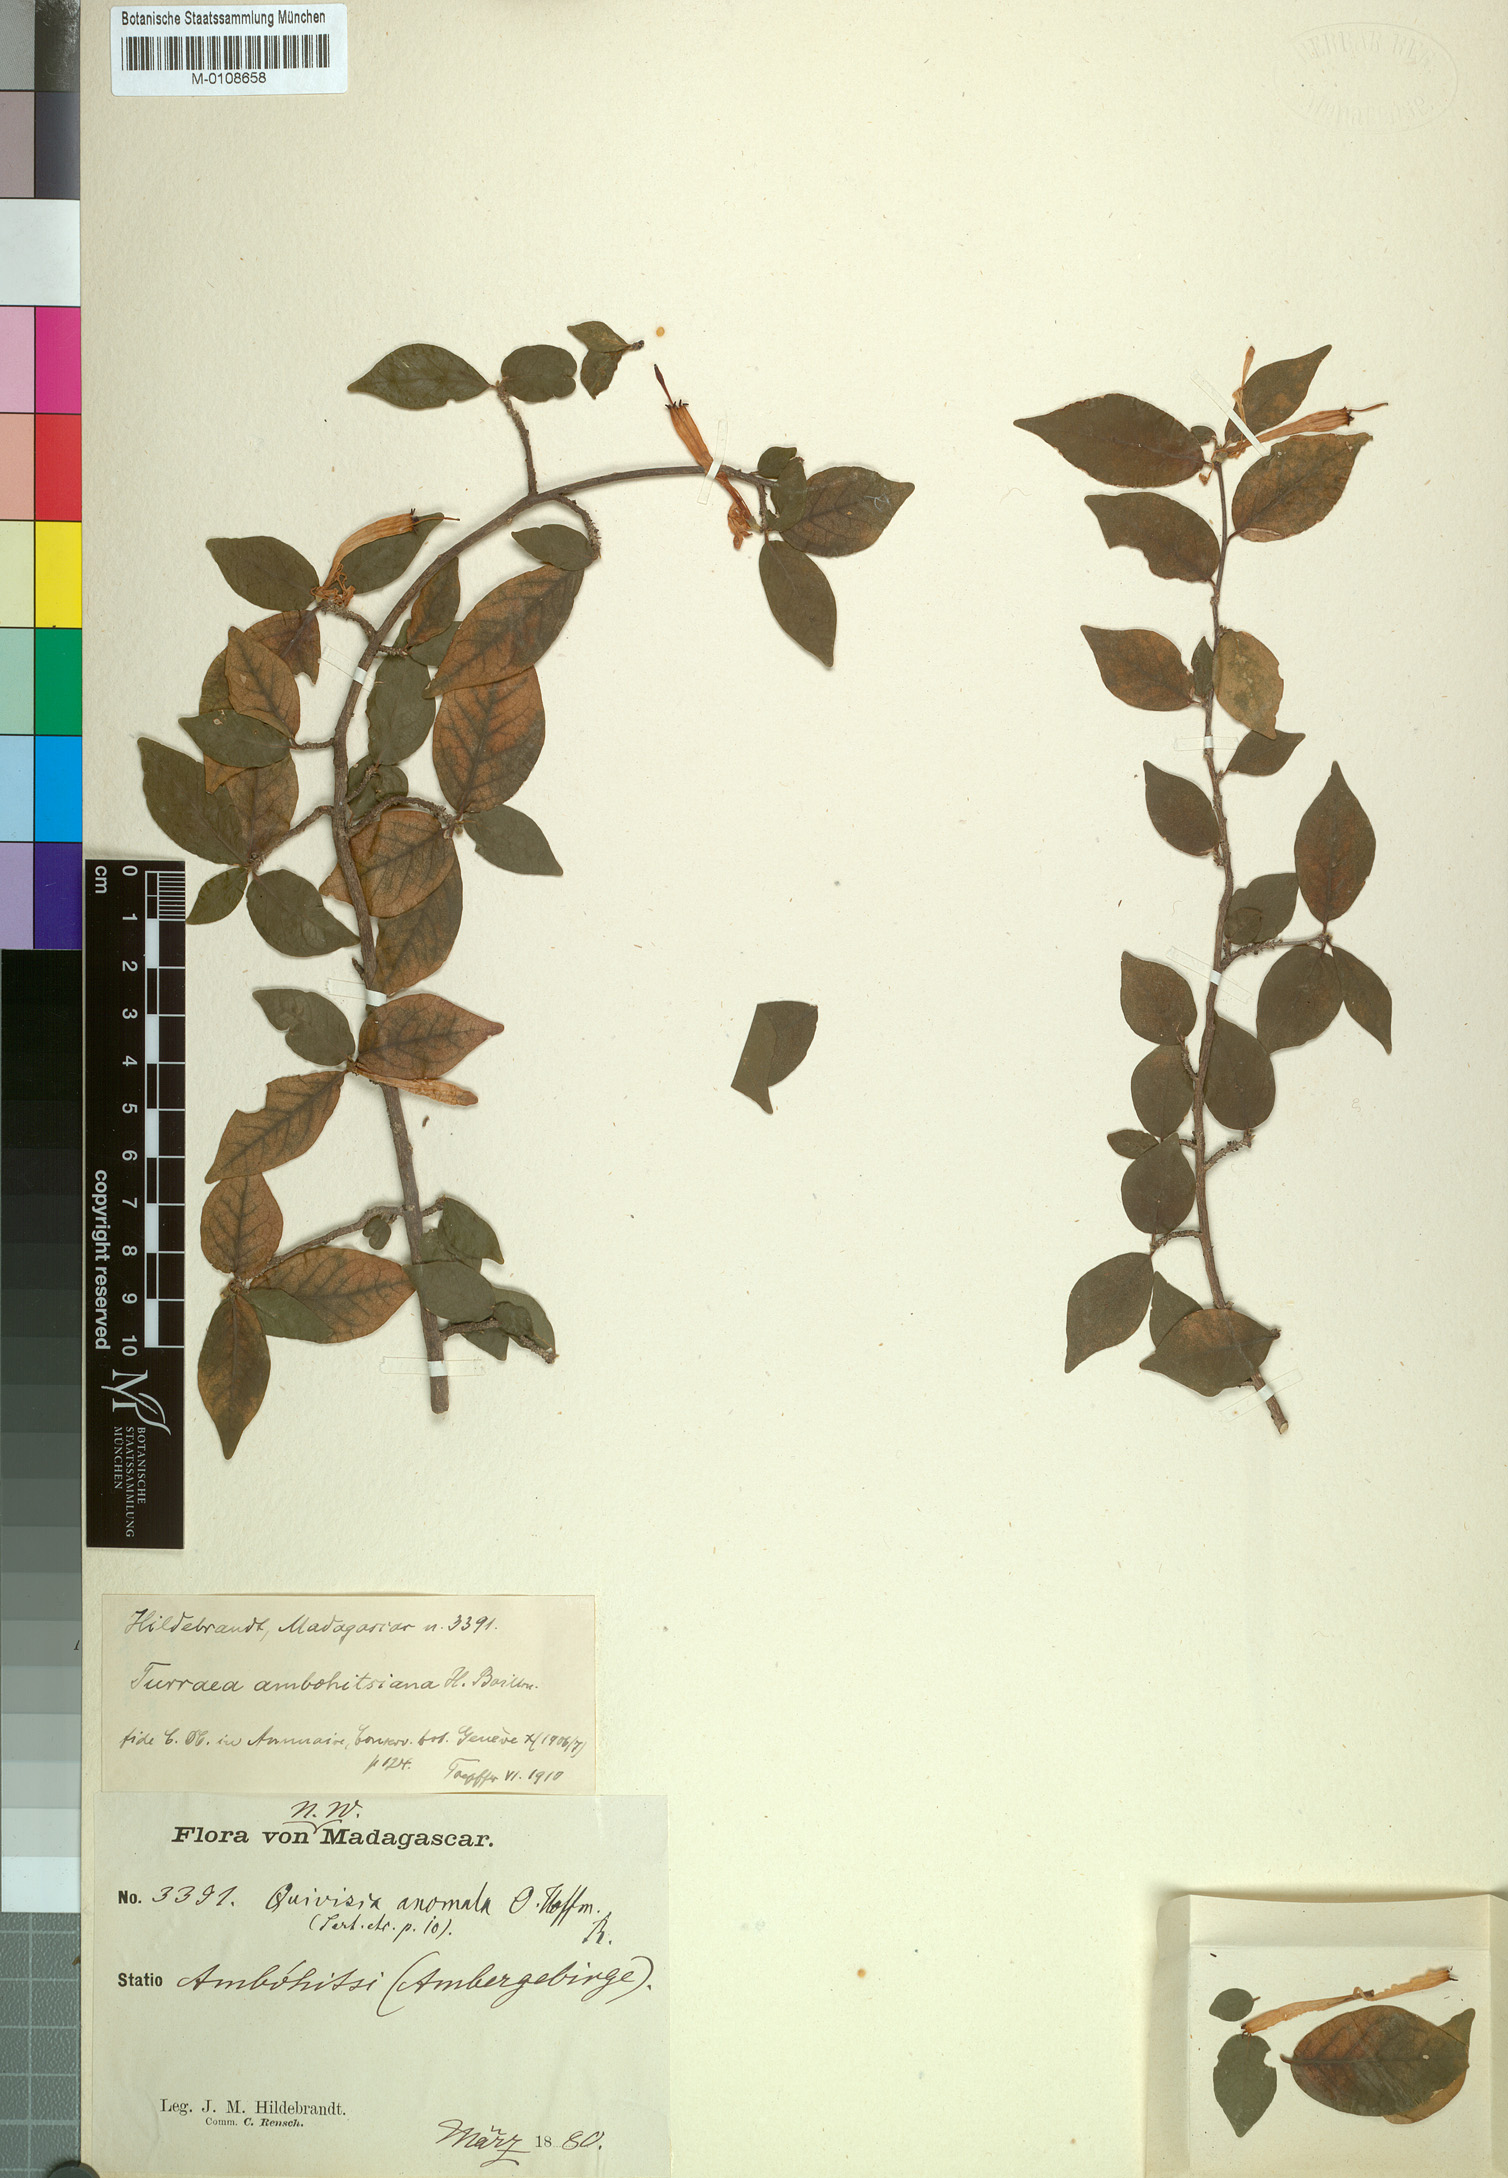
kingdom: Plantae
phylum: Tracheophyta
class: Magnoliopsida
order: Sapindales
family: Meliaceae
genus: Turraea
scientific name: Turraea anomala
